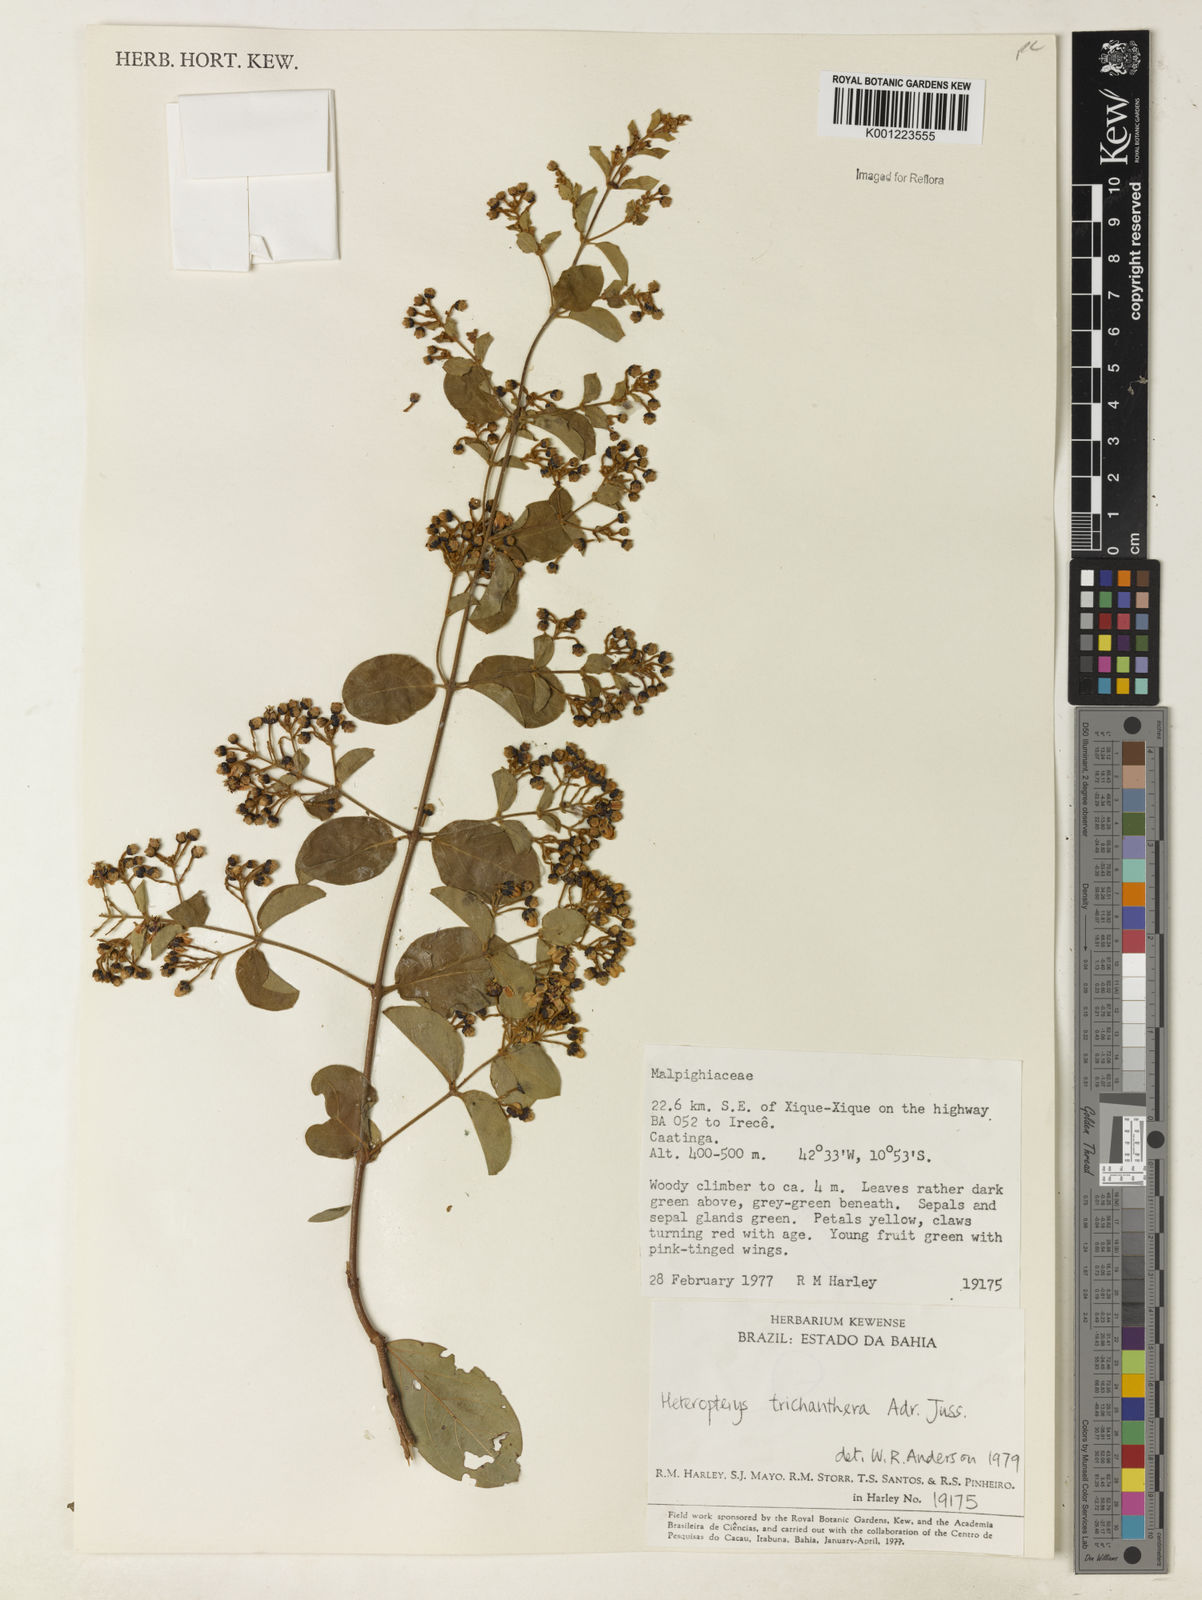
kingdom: Plantae
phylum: Tracheophyta
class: Magnoliopsida
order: Malpighiales
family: Malpighiaceae
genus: Heteropterys
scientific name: Heteropterys trichanthera
